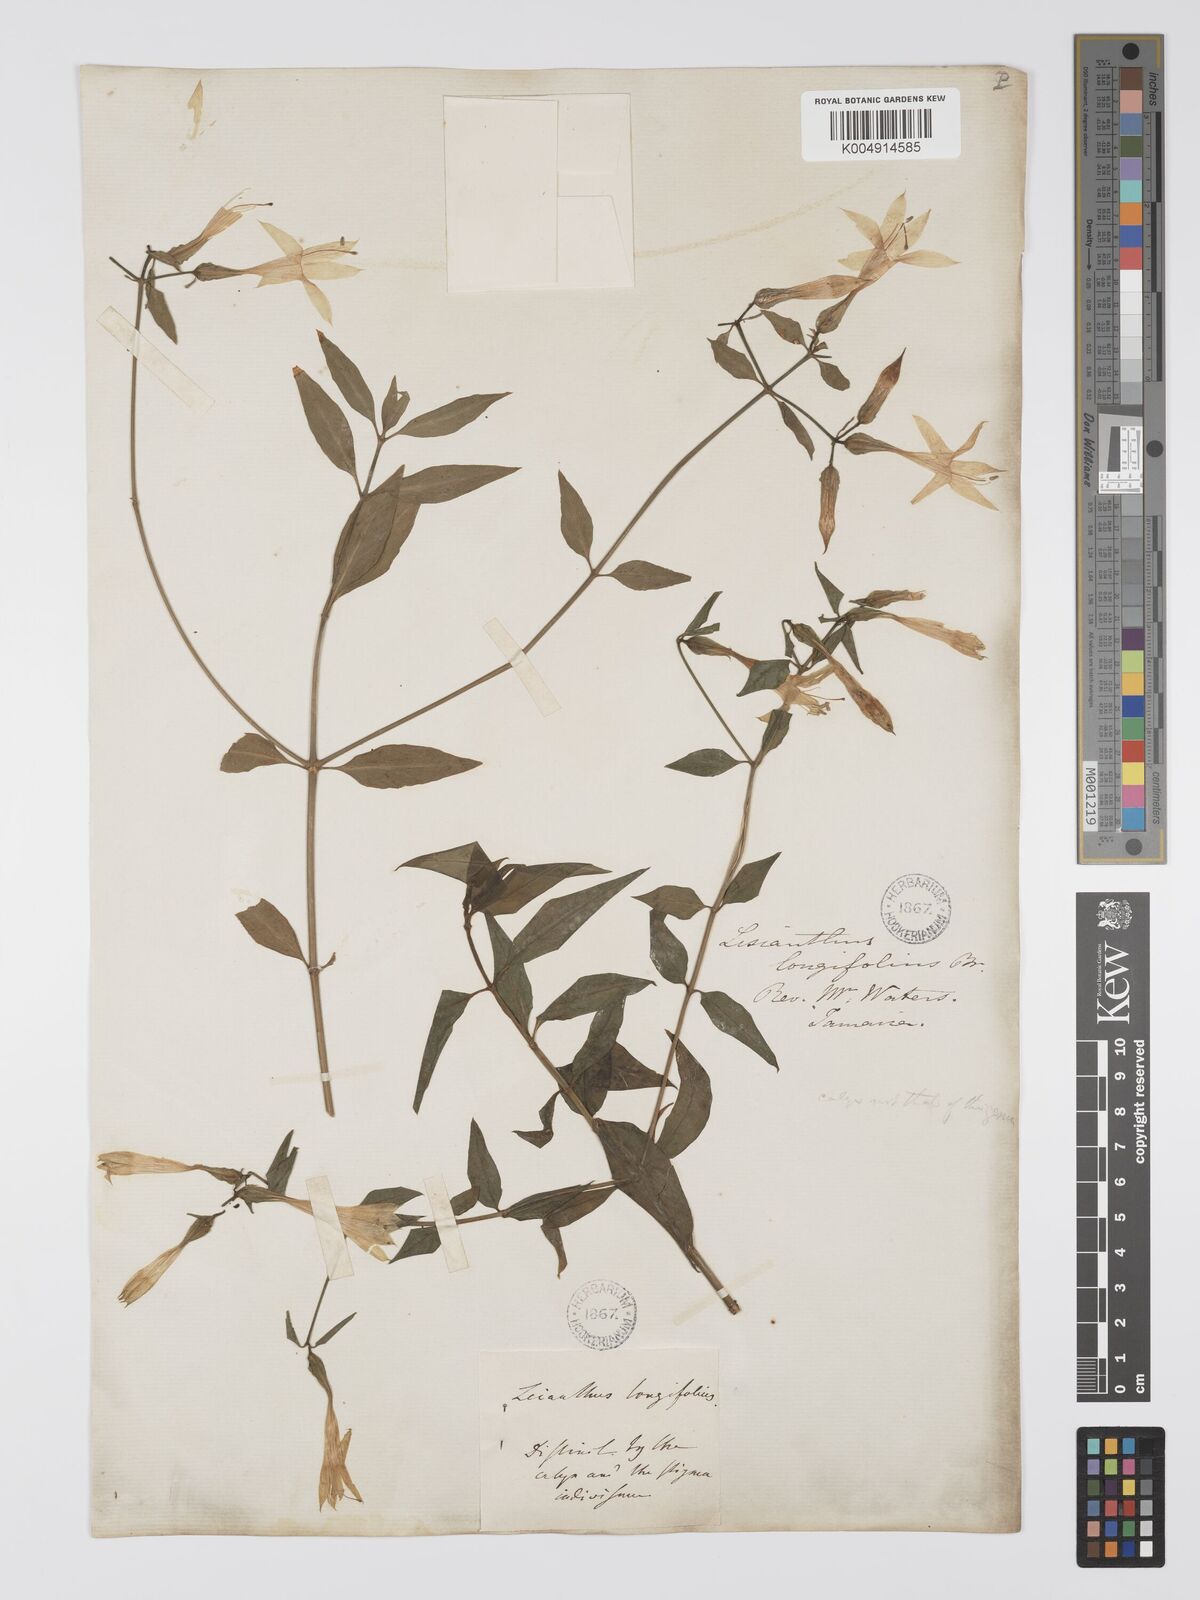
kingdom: Plantae
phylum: Tracheophyta
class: Magnoliopsida
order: Gentianales
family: Gentianaceae
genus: Lisianthus
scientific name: Lisianthus longifolius
